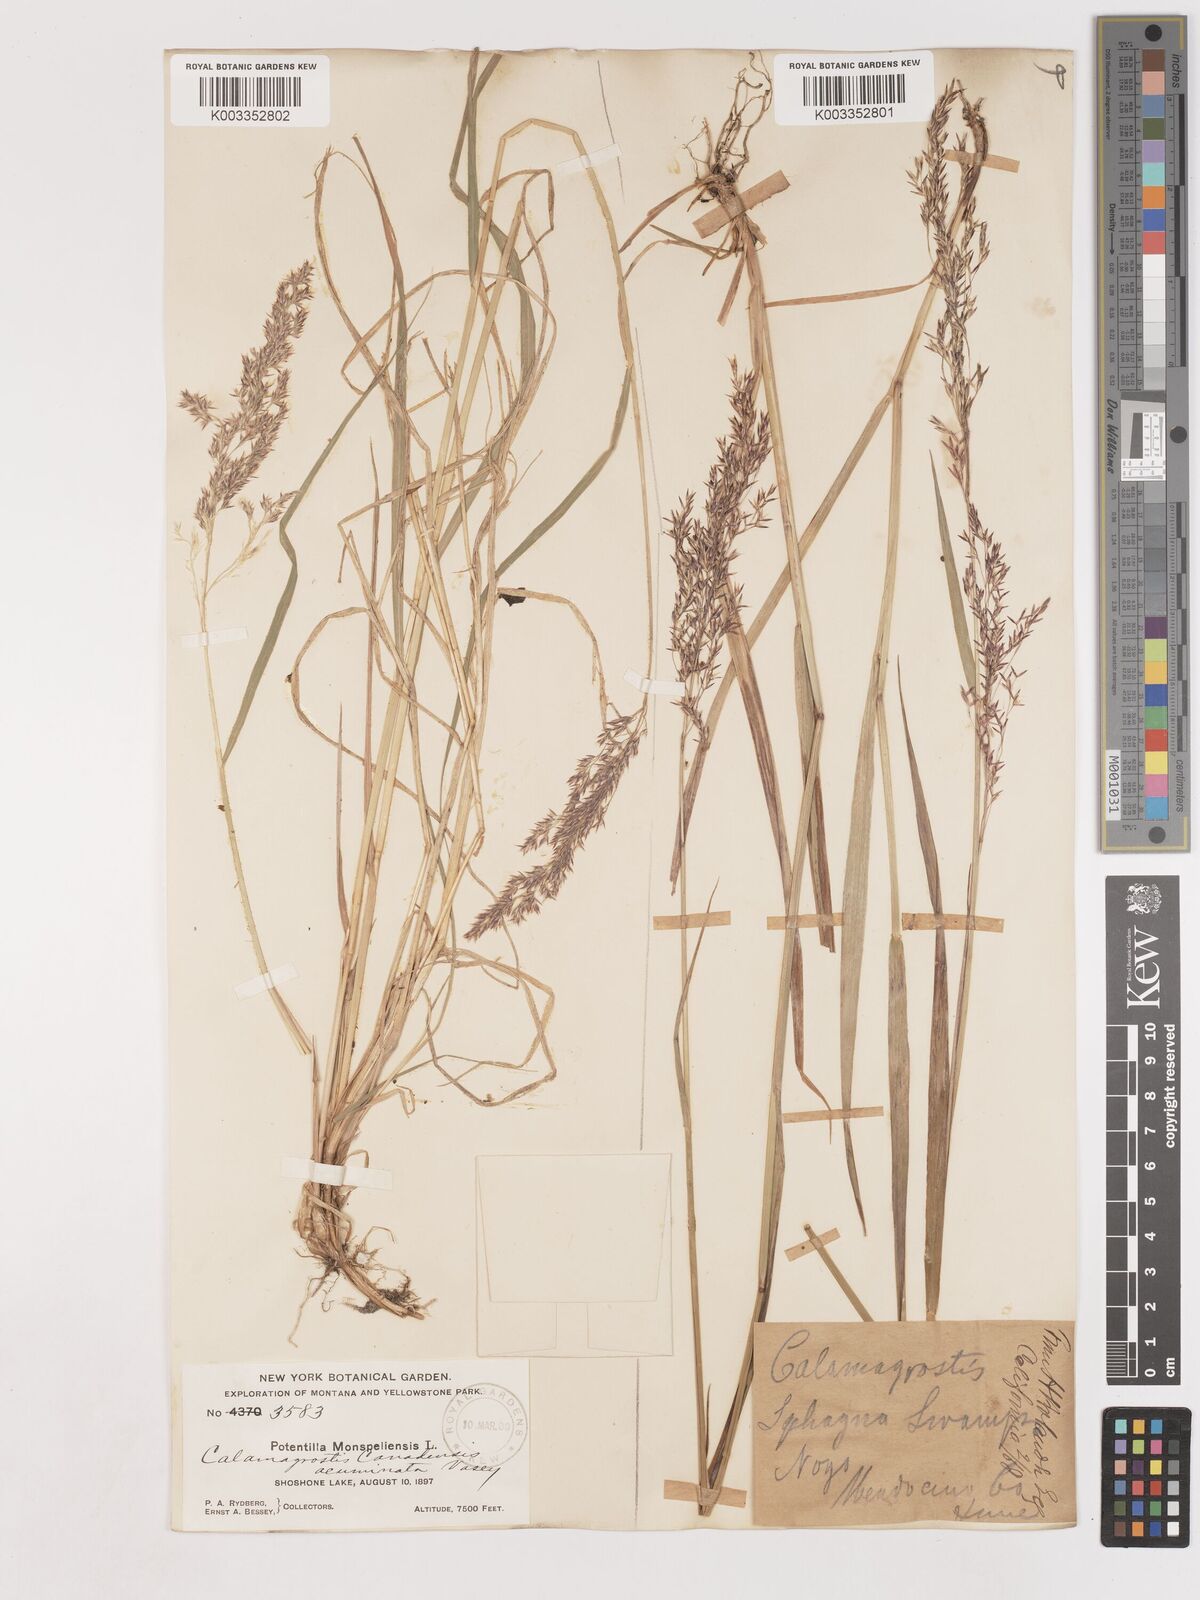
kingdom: Plantae
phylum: Tracheophyta
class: Liliopsida
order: Poales
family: Poaceae
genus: Calamagrostis
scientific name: Calamagrostis canadensis
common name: Canada bluejoint
